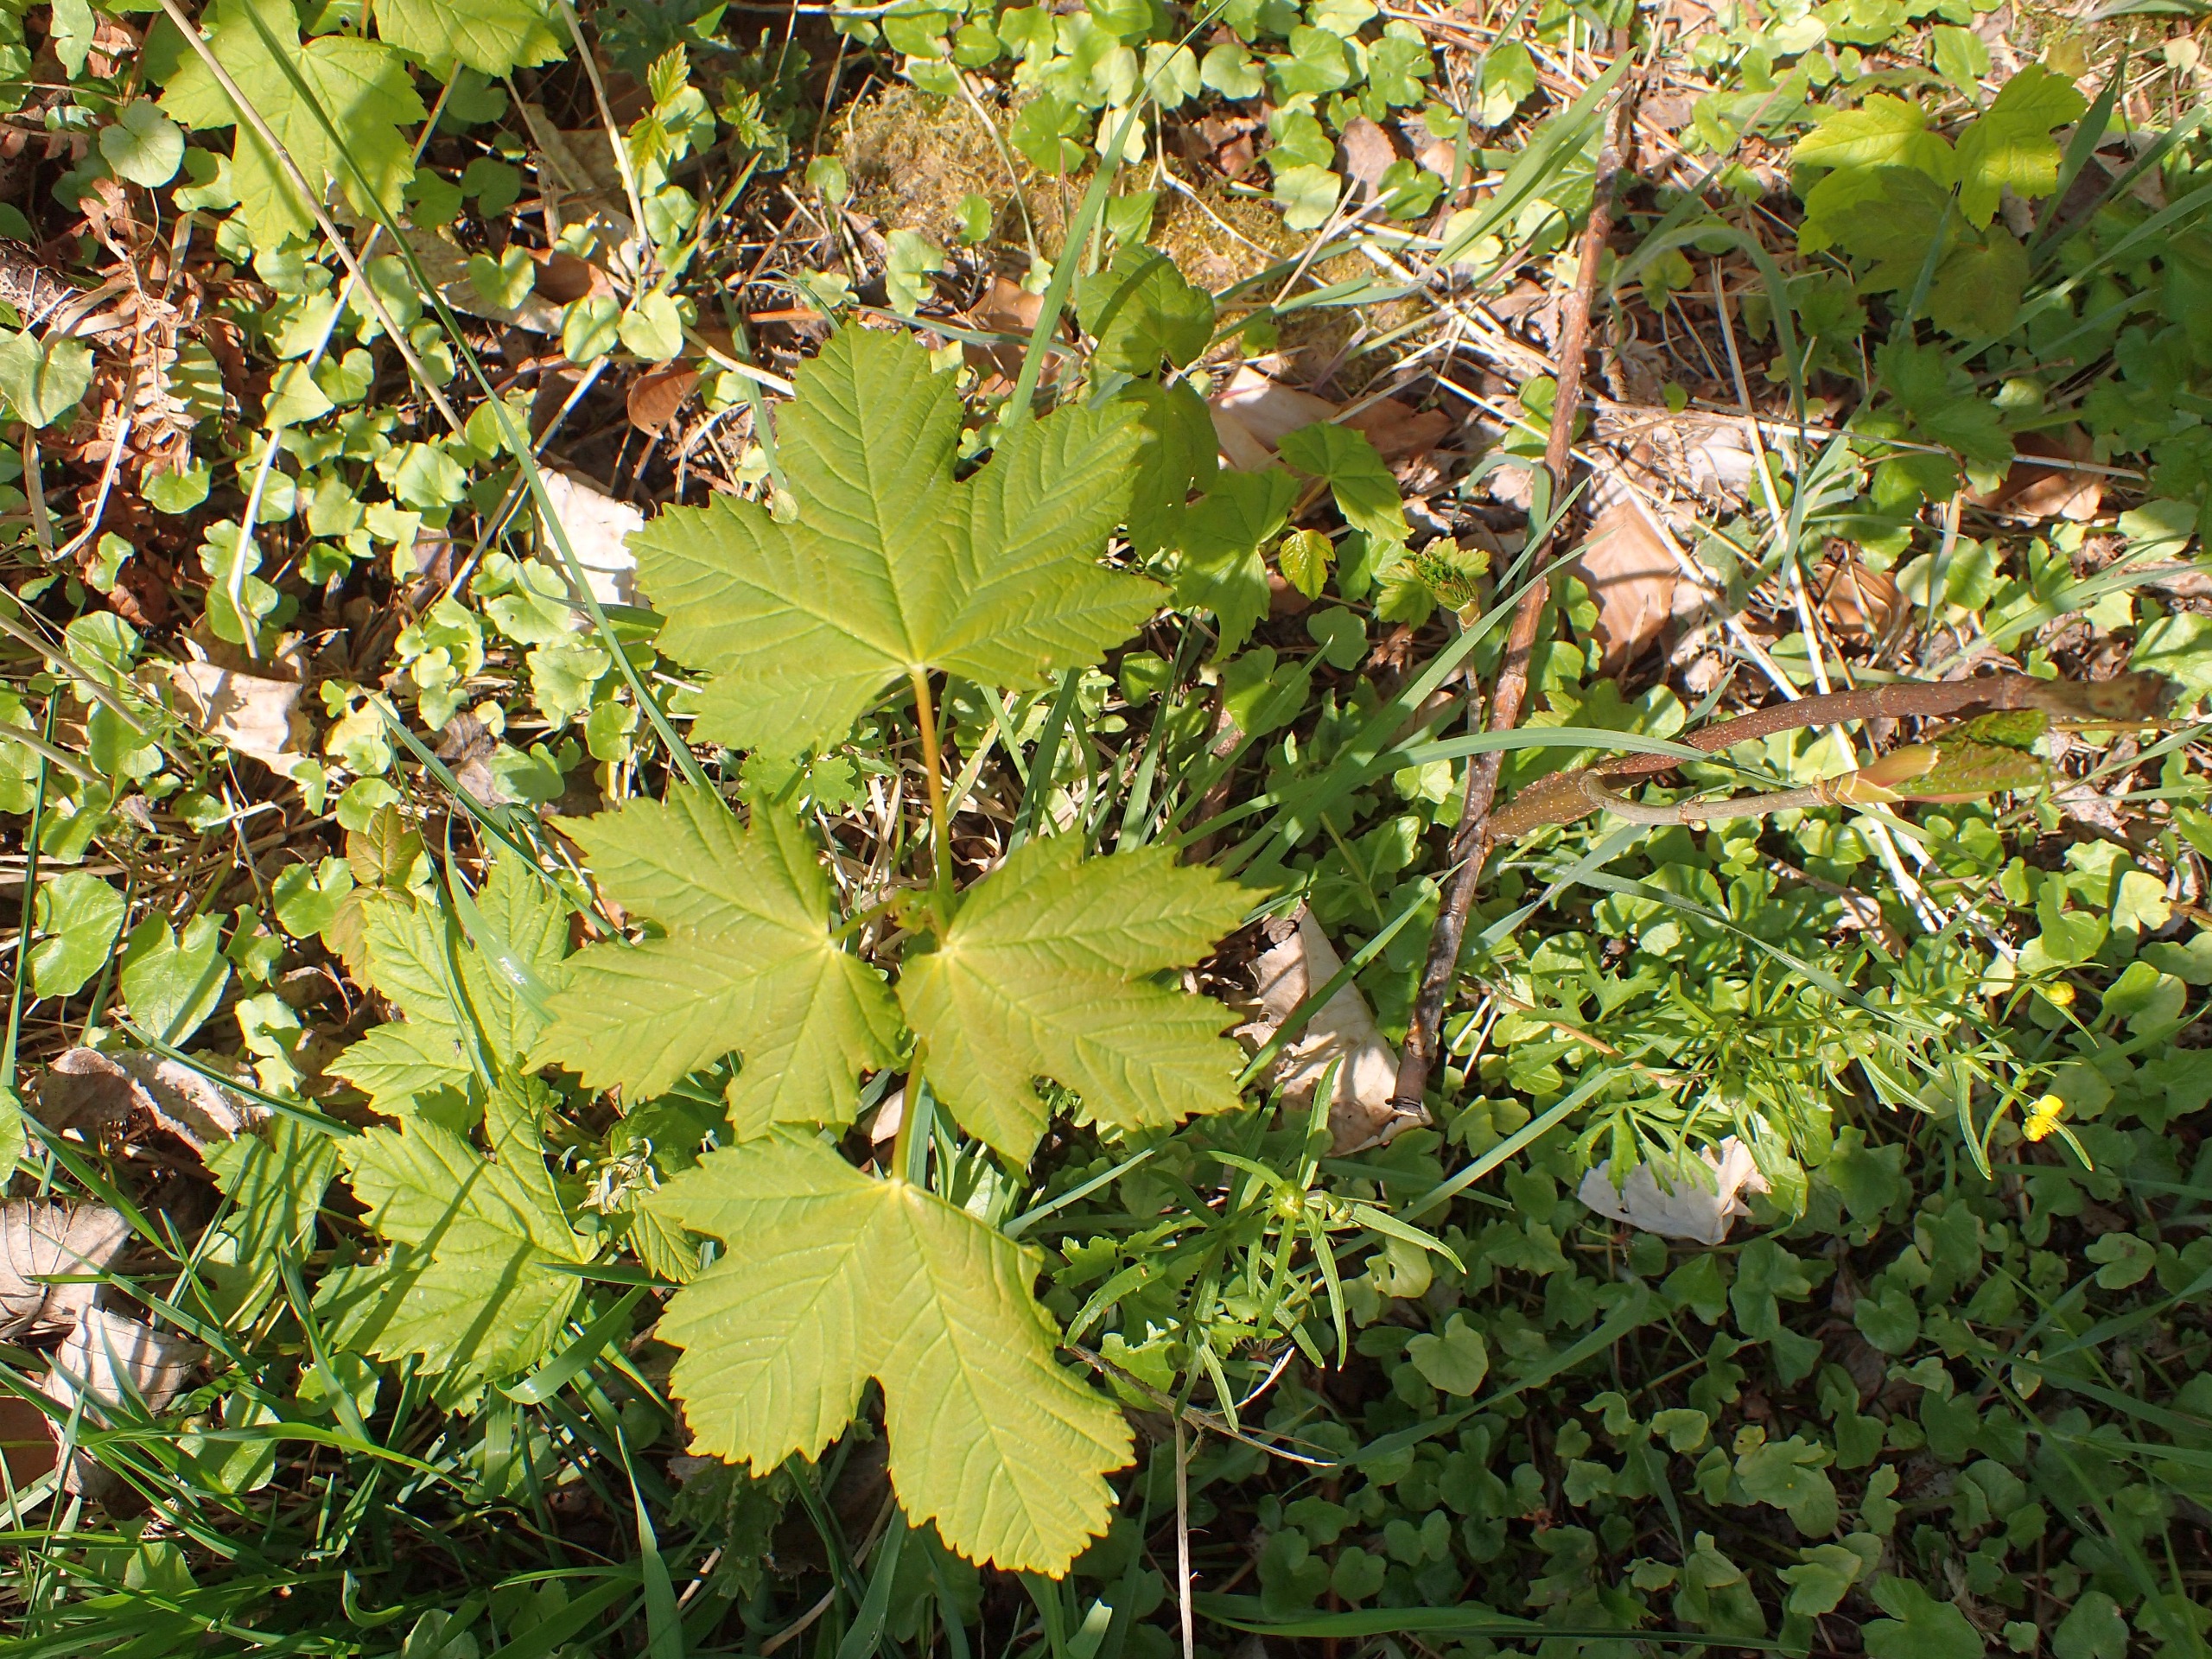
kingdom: Plantae
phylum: Tracheophyta
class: Magnoliopsida
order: Sapindales
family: Sapindaceae
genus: Acer
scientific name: Acer pseudoplatanus
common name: Ahorn
